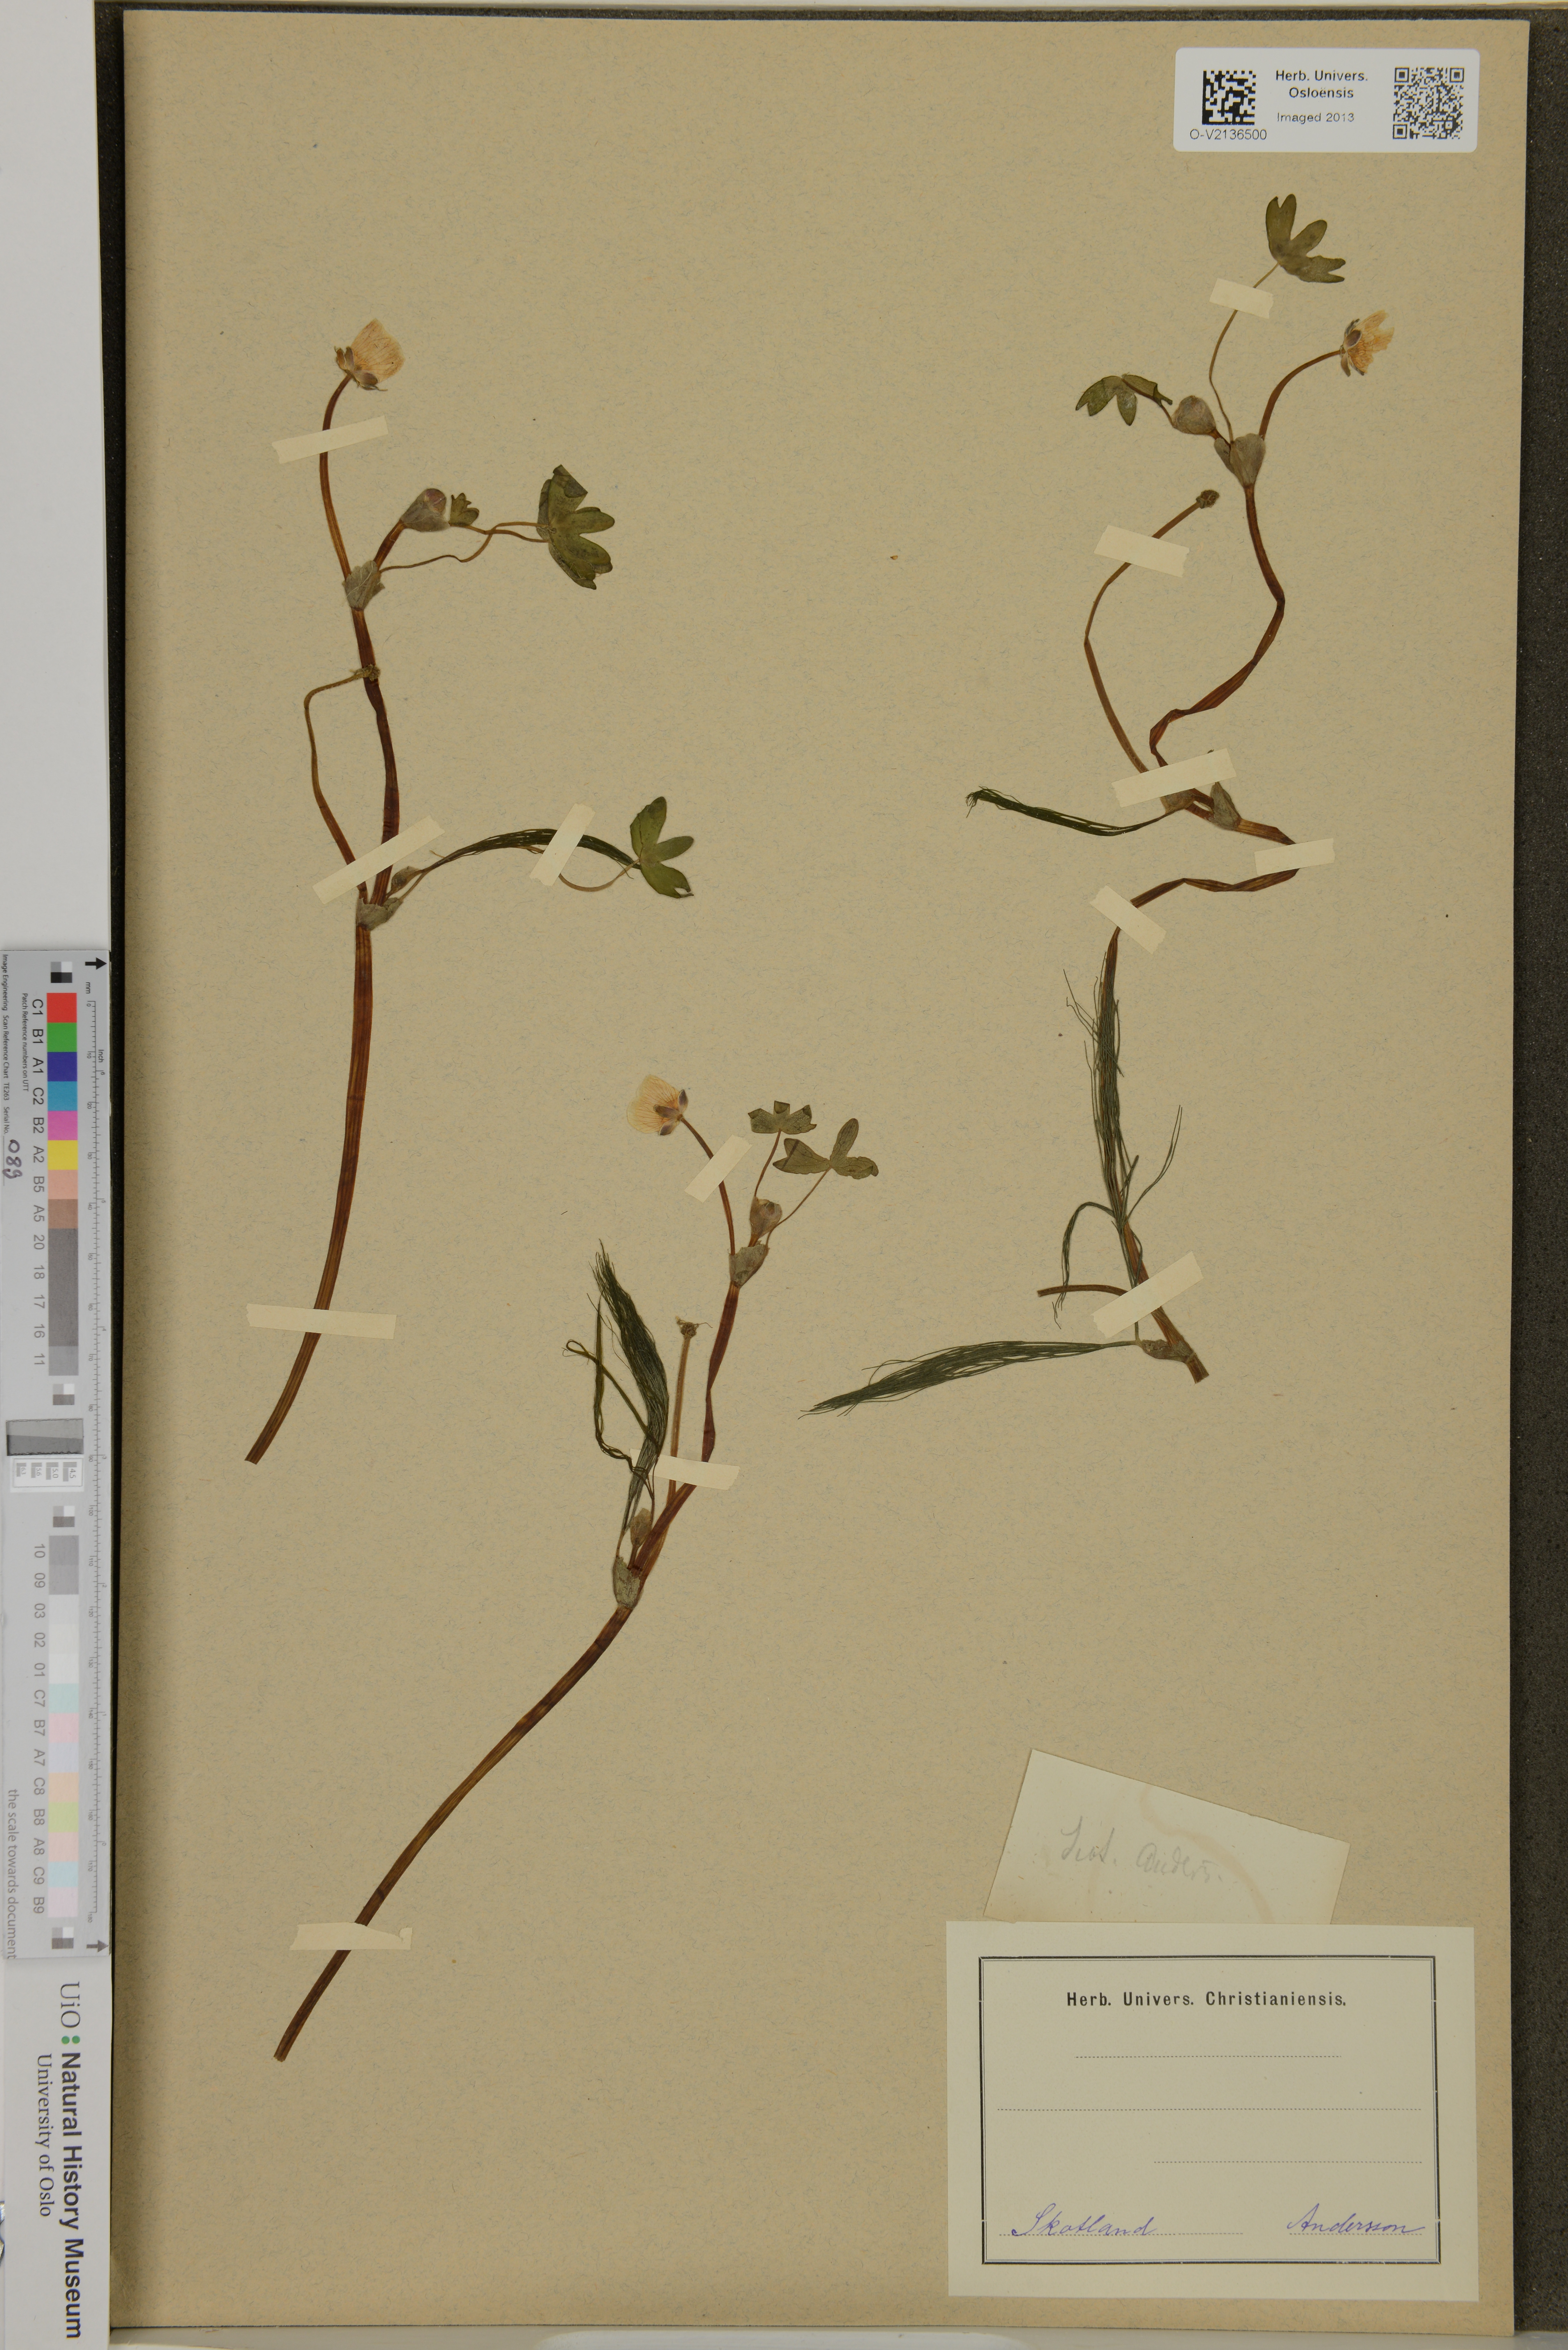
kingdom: Plantae
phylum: Tracheophyta
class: Magnoliopsida
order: Ranunculales
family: Ranunculaceae
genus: Ranunculus
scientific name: Ranunculus
